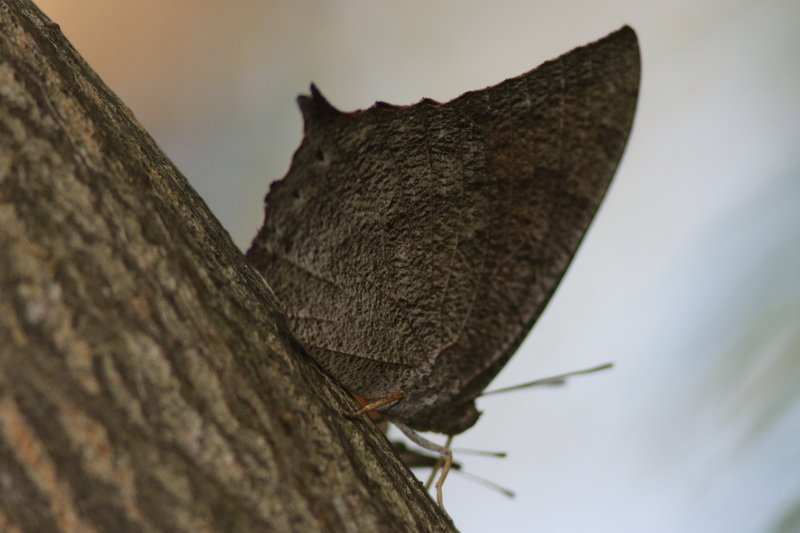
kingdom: Animalia
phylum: Arthropoda
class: Insecta
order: Lepidoptera
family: Nymphalidae
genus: Anaea
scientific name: Anaea aidea
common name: Tropical Leafwing
